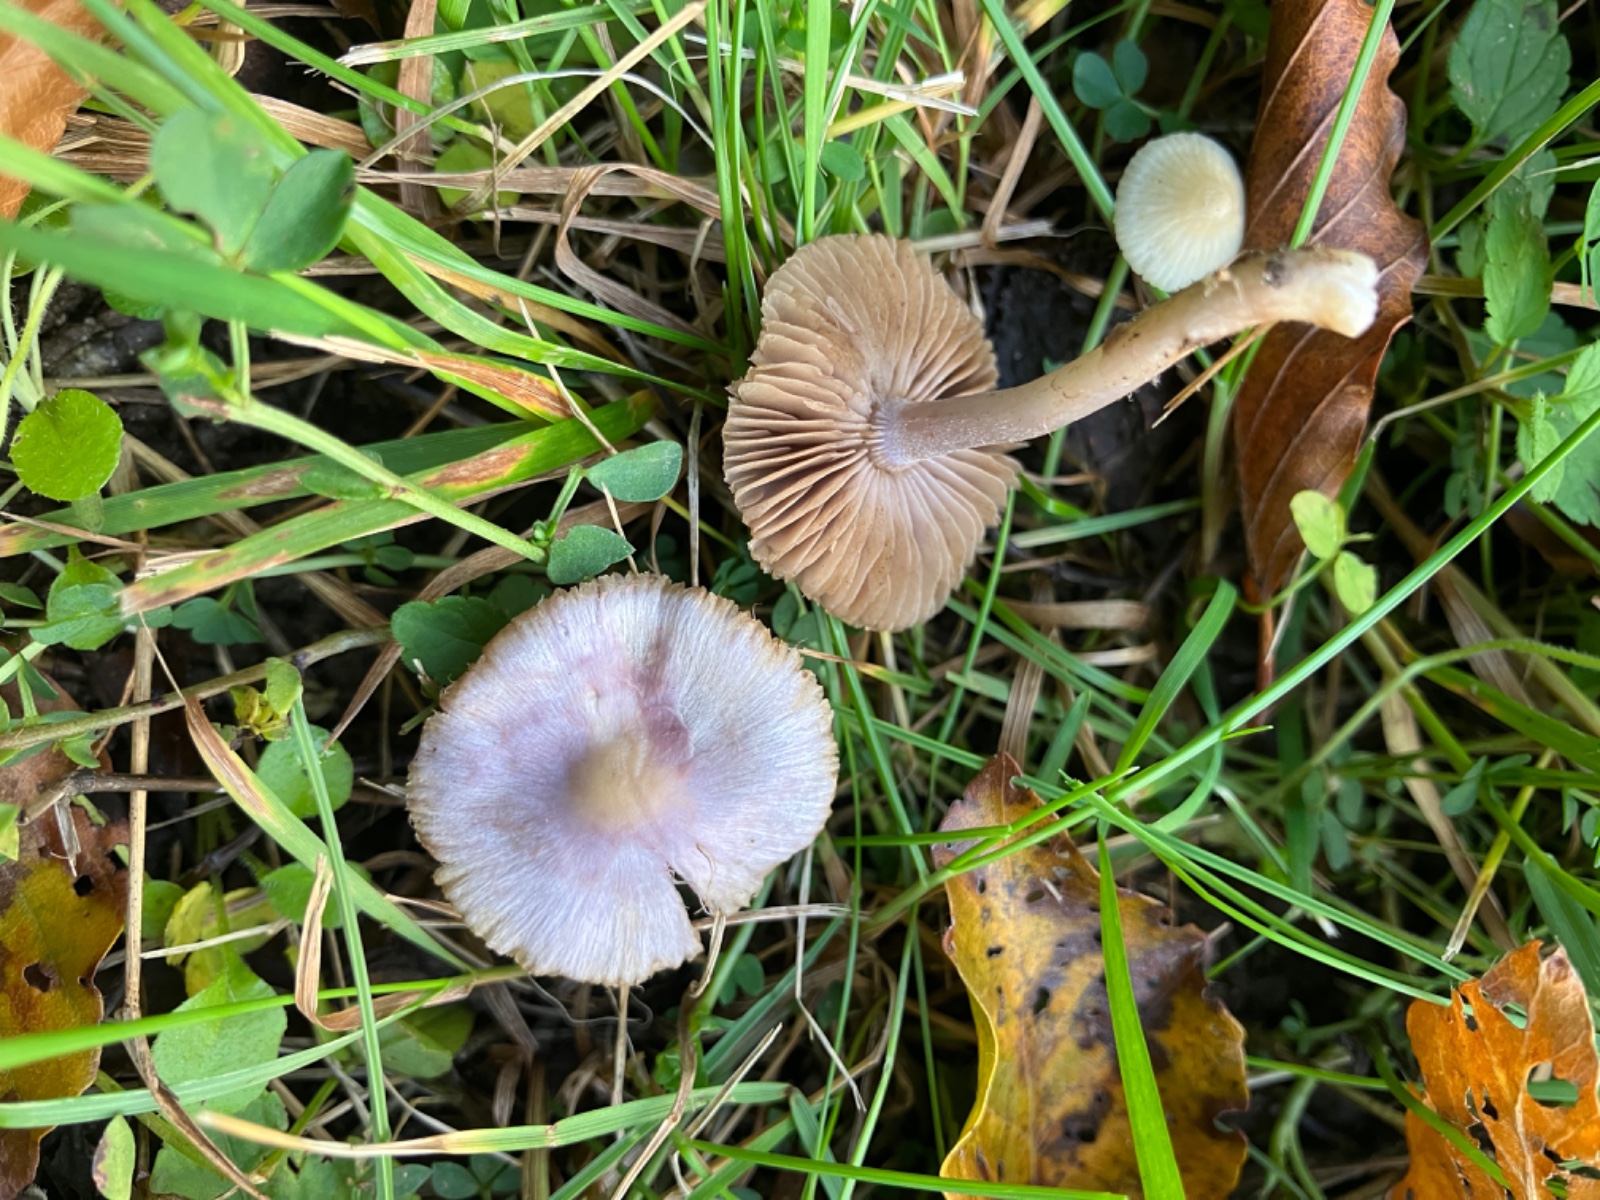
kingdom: Fungi
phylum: Basidiomycota
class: Agaricomycetes
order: Agaricales
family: Inocybaceae
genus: Inocybe
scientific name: Inocybe geophylla
